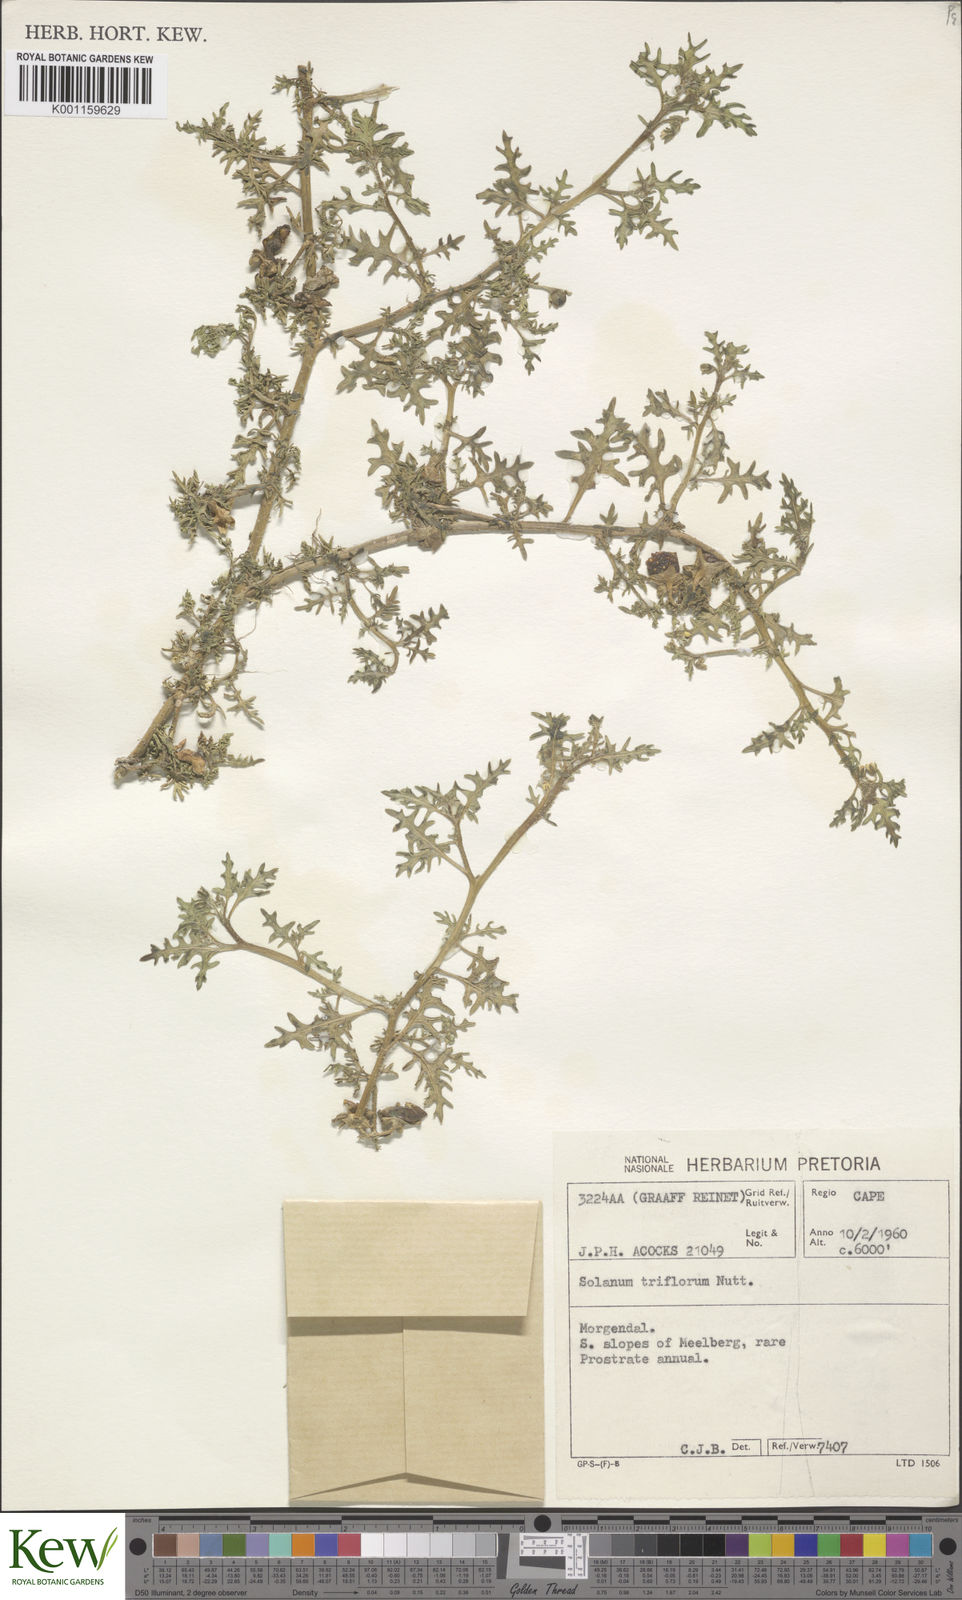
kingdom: Plantae
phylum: Tracheophyta
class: Magnoliopsida
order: Solanales
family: Solanaceae
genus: Solanum
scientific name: Solanum triflorum
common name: Small nightshade
